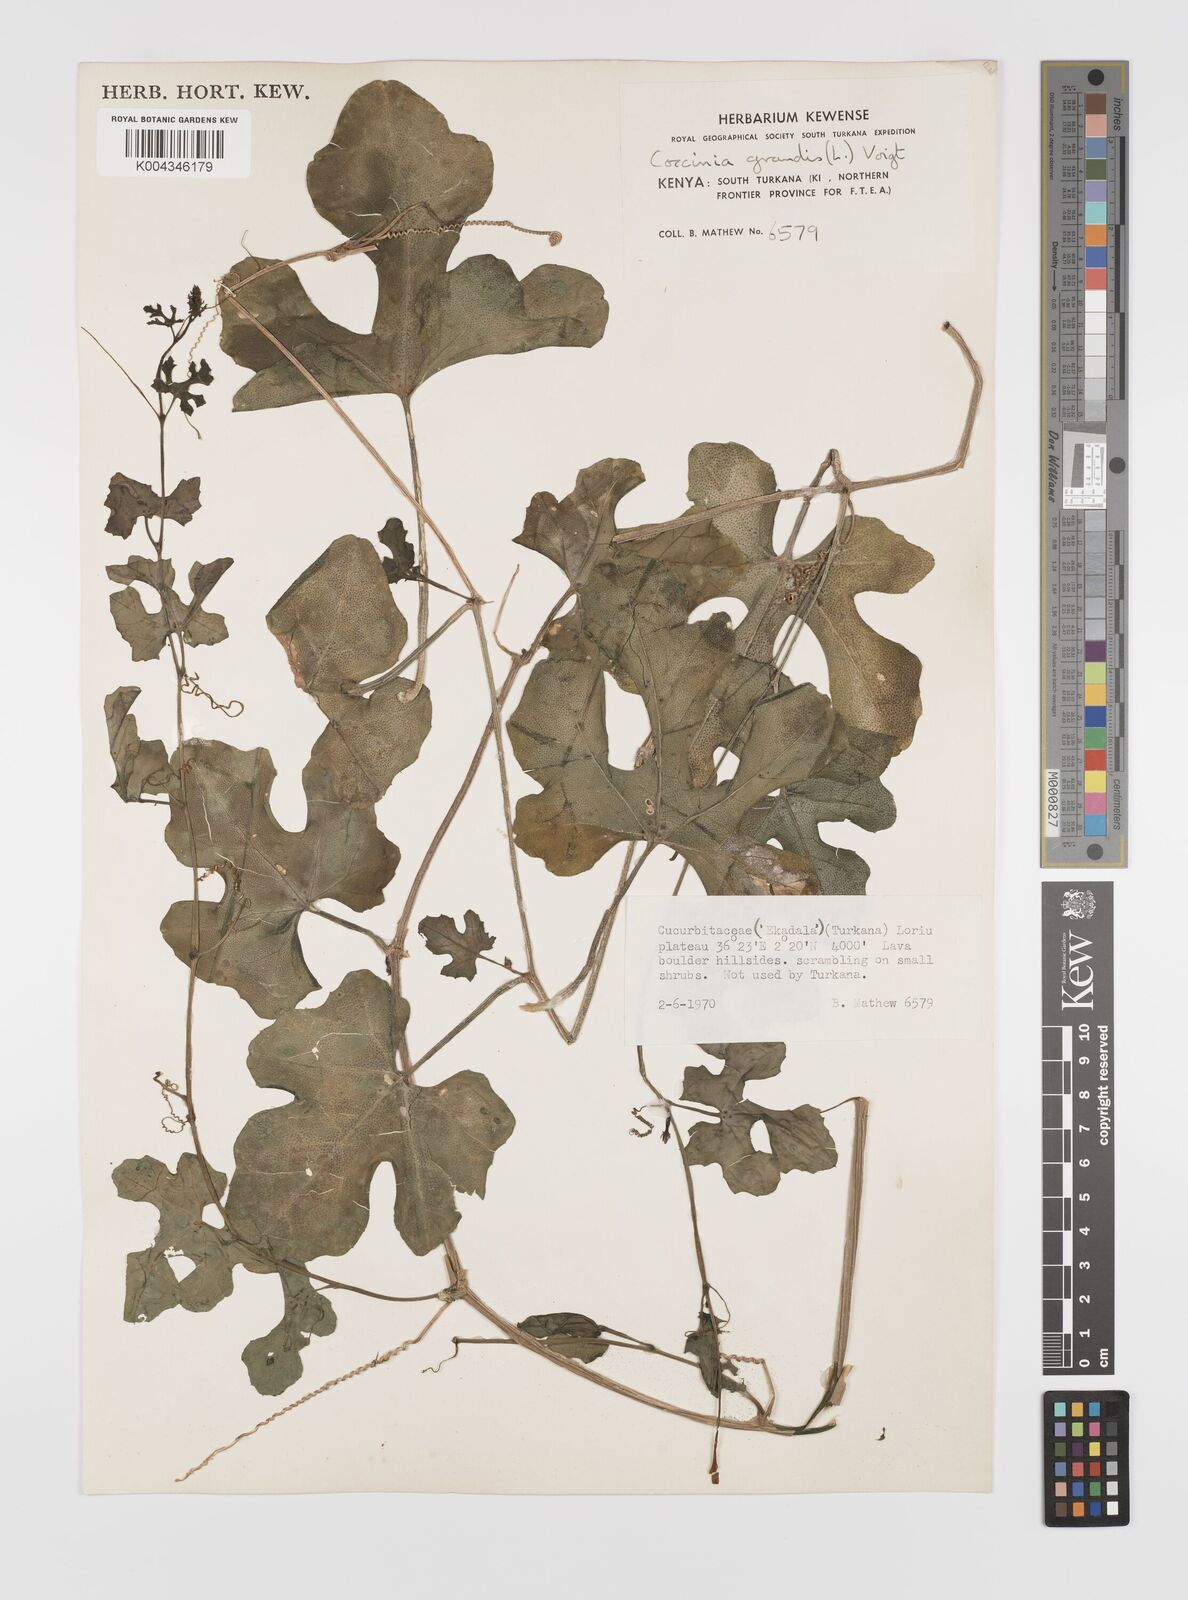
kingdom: Plantae
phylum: Tracheophyta
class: Magnoliopsida
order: Cucurbitales
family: Cucurbitaceae
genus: Coccinia
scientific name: Coccinia grandis
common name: Ivy gourd
